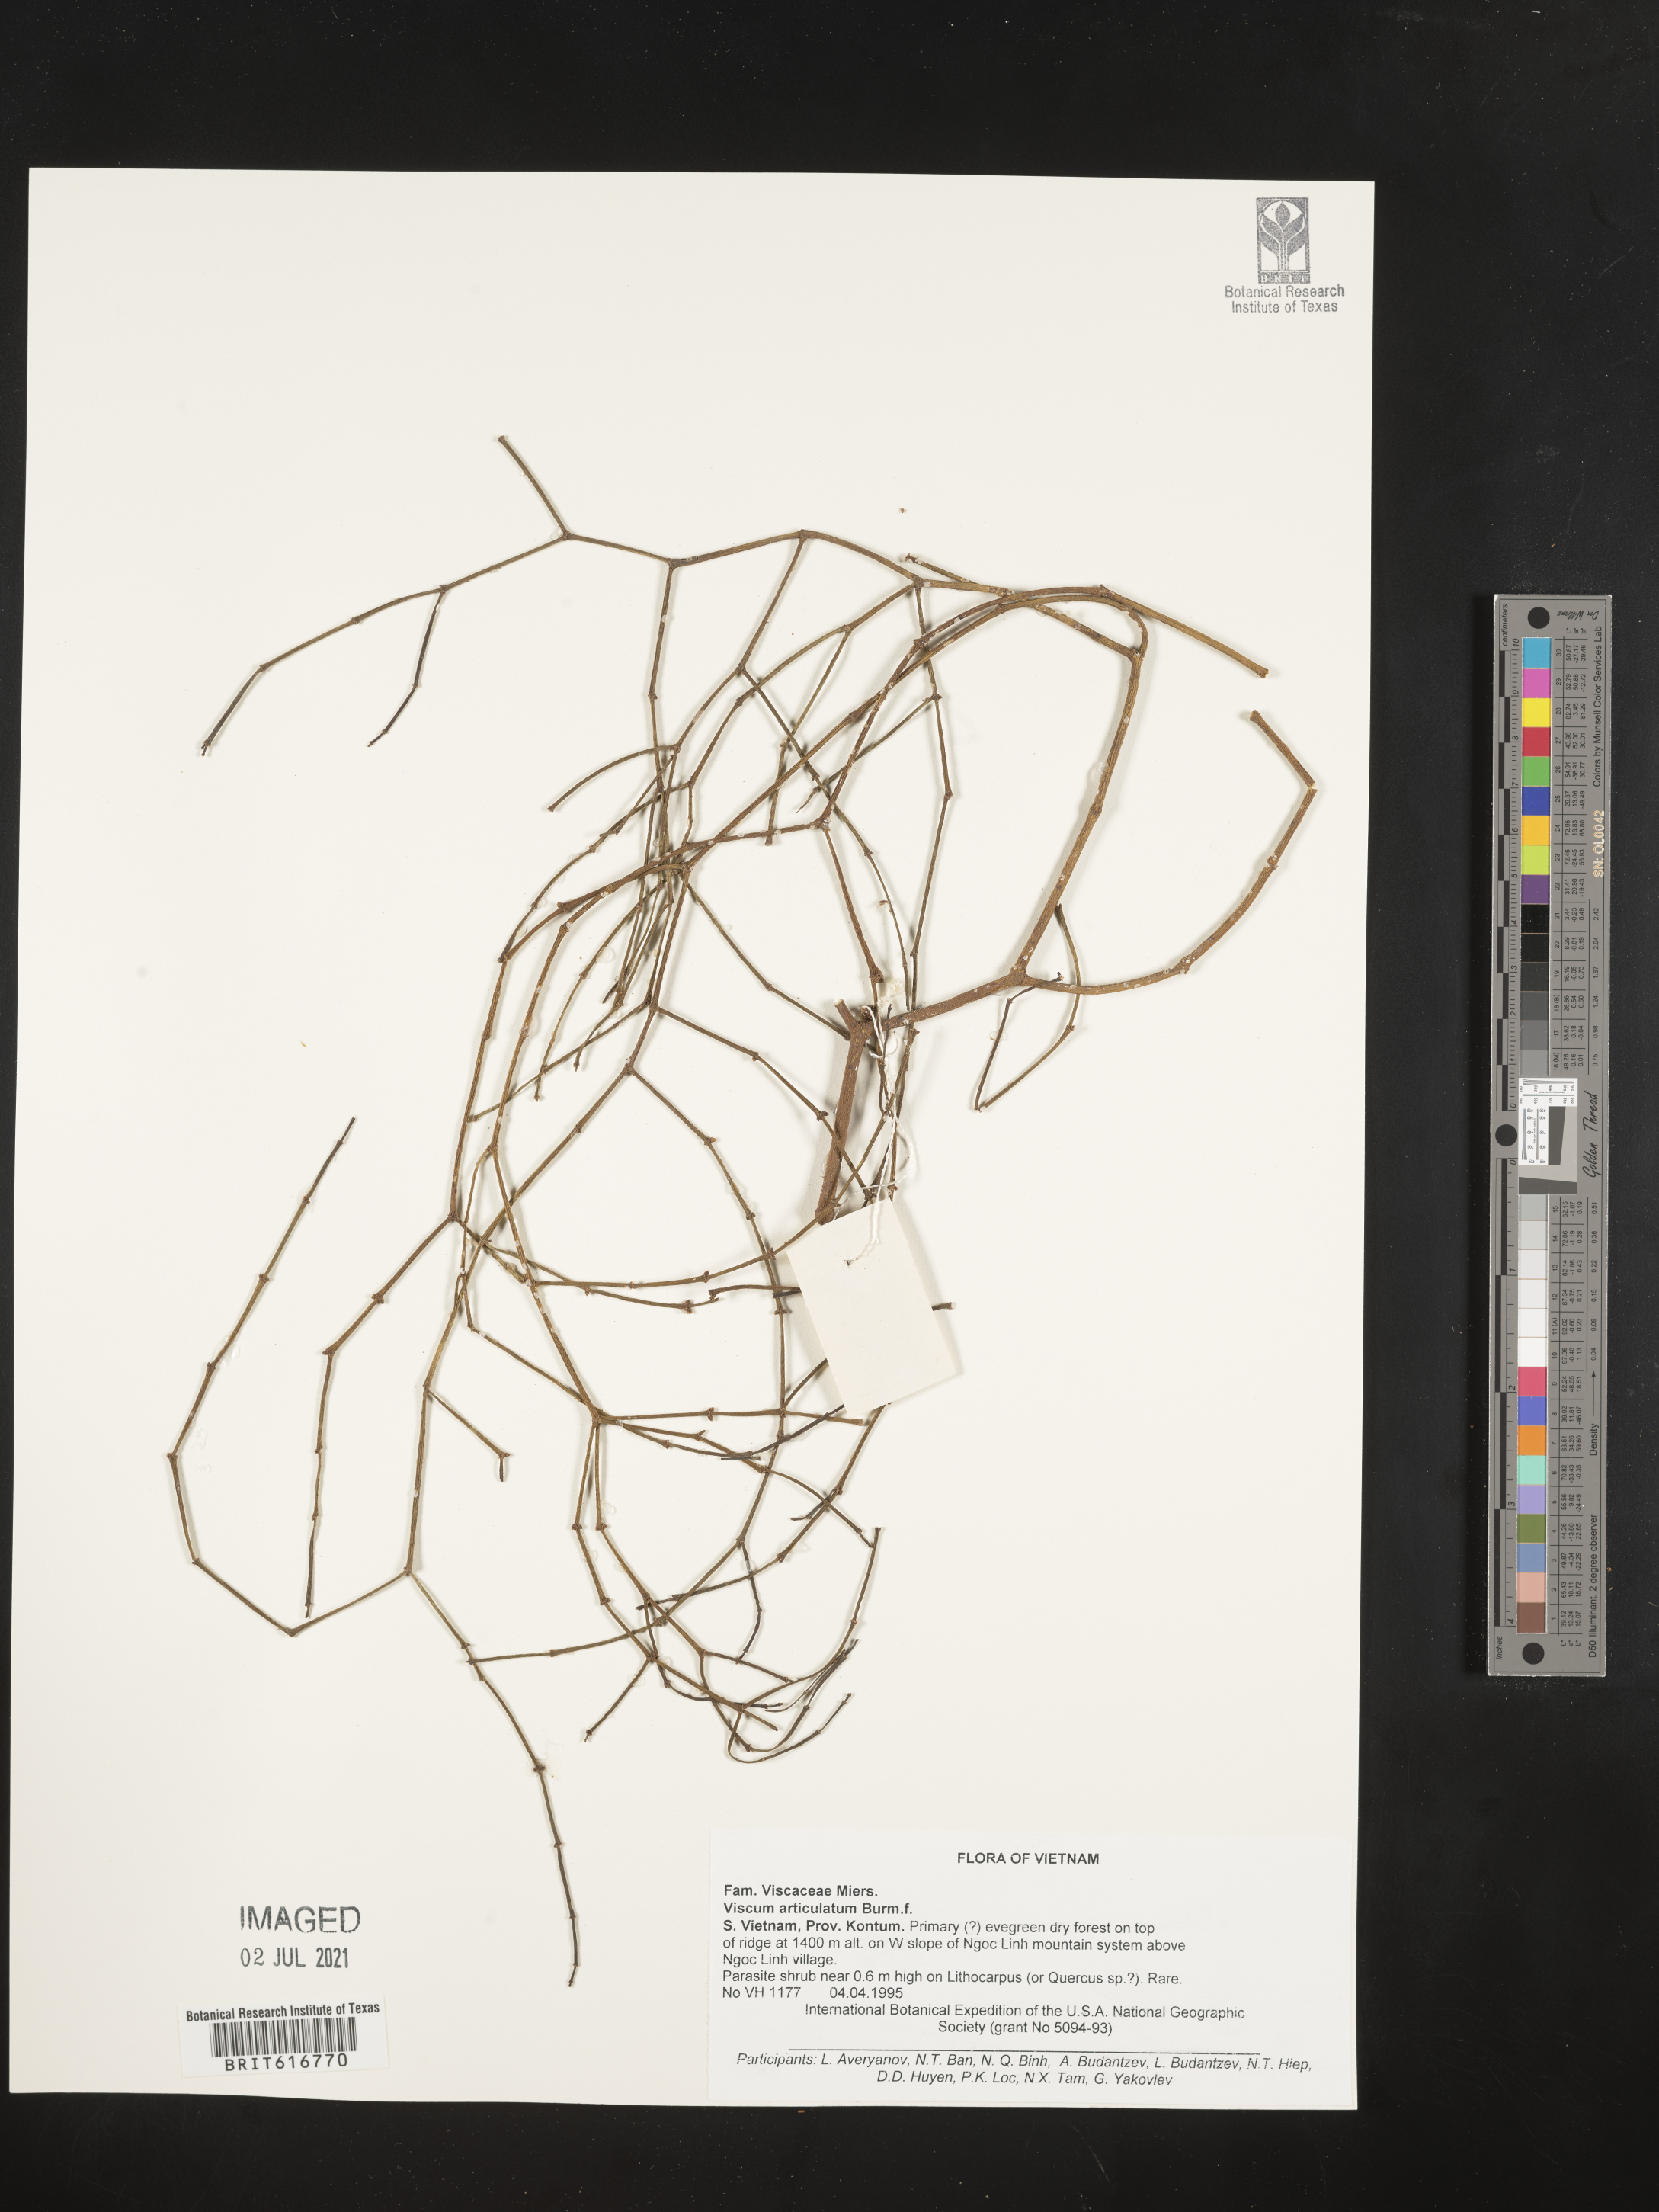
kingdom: Plantae
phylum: Tracheophyta
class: Magnoliopsida
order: Santalales
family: Viscaceae
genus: Viscum
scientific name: Viscum articulatum
